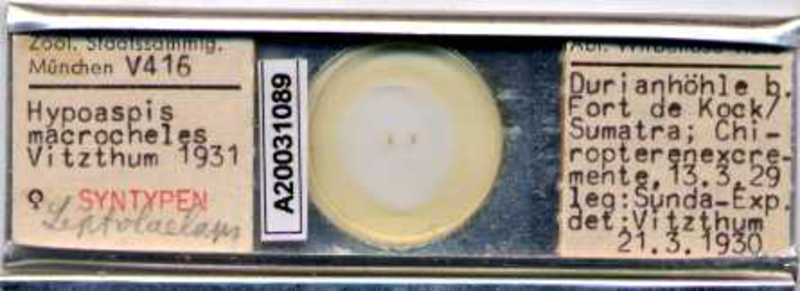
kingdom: Animalia
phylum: Arthropoda
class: Arachnida
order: Mesostigmata
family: Laelapidae
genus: Hypoaspis
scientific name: Hypoaspis
